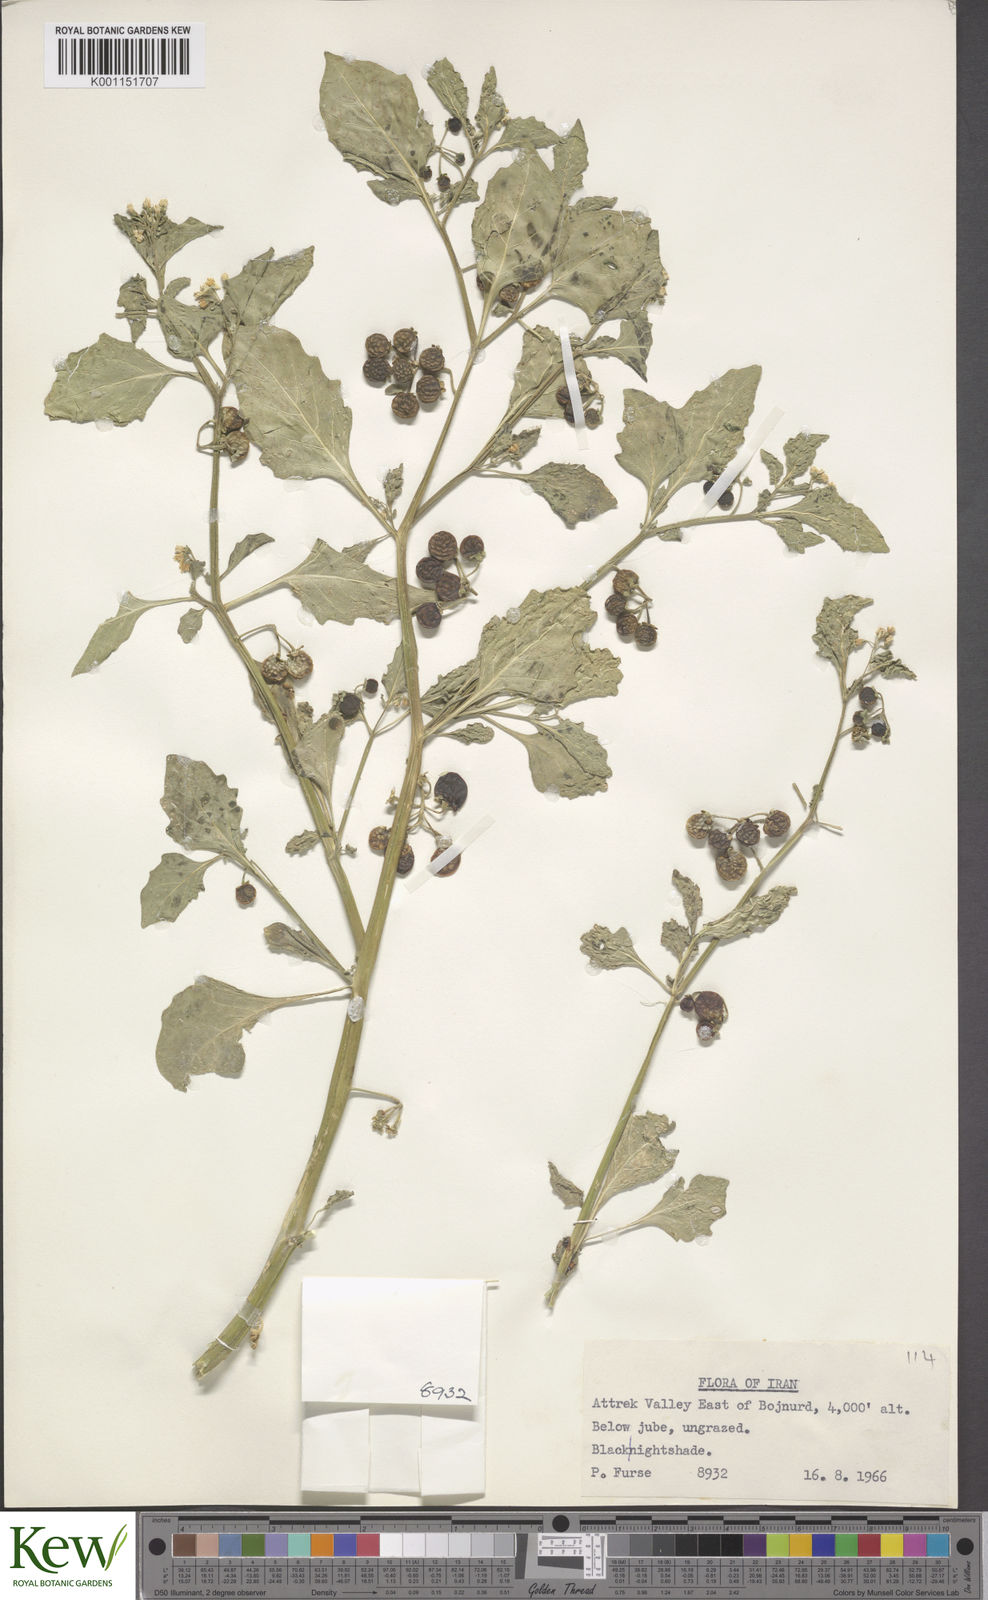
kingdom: Plantae
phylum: Tracheophyta
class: Magnoliopsida
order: Solanales
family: Solanaceae
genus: Solanum
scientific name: Solanum nigrum
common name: Black nightshade
